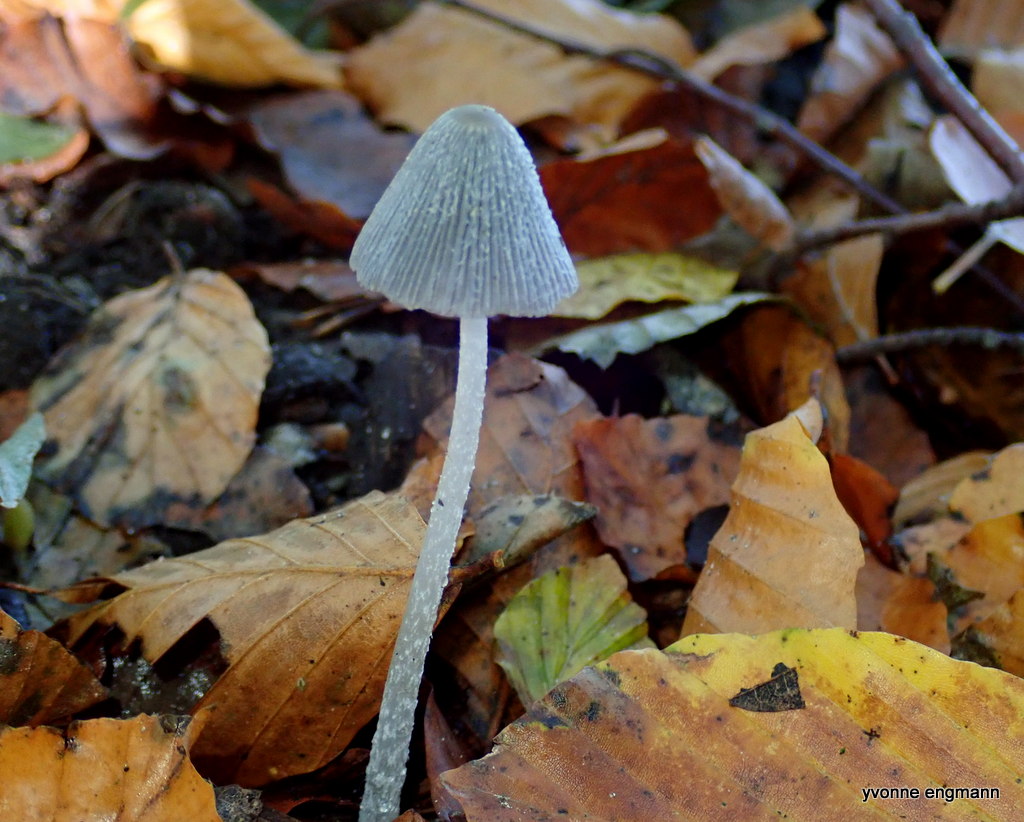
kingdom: Fungi
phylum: Basidiomycota
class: Agaricomycetes
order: Agaricales
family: Psathyrellaceae
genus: Coprinopsis
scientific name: Coprinopsis
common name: blækhat
